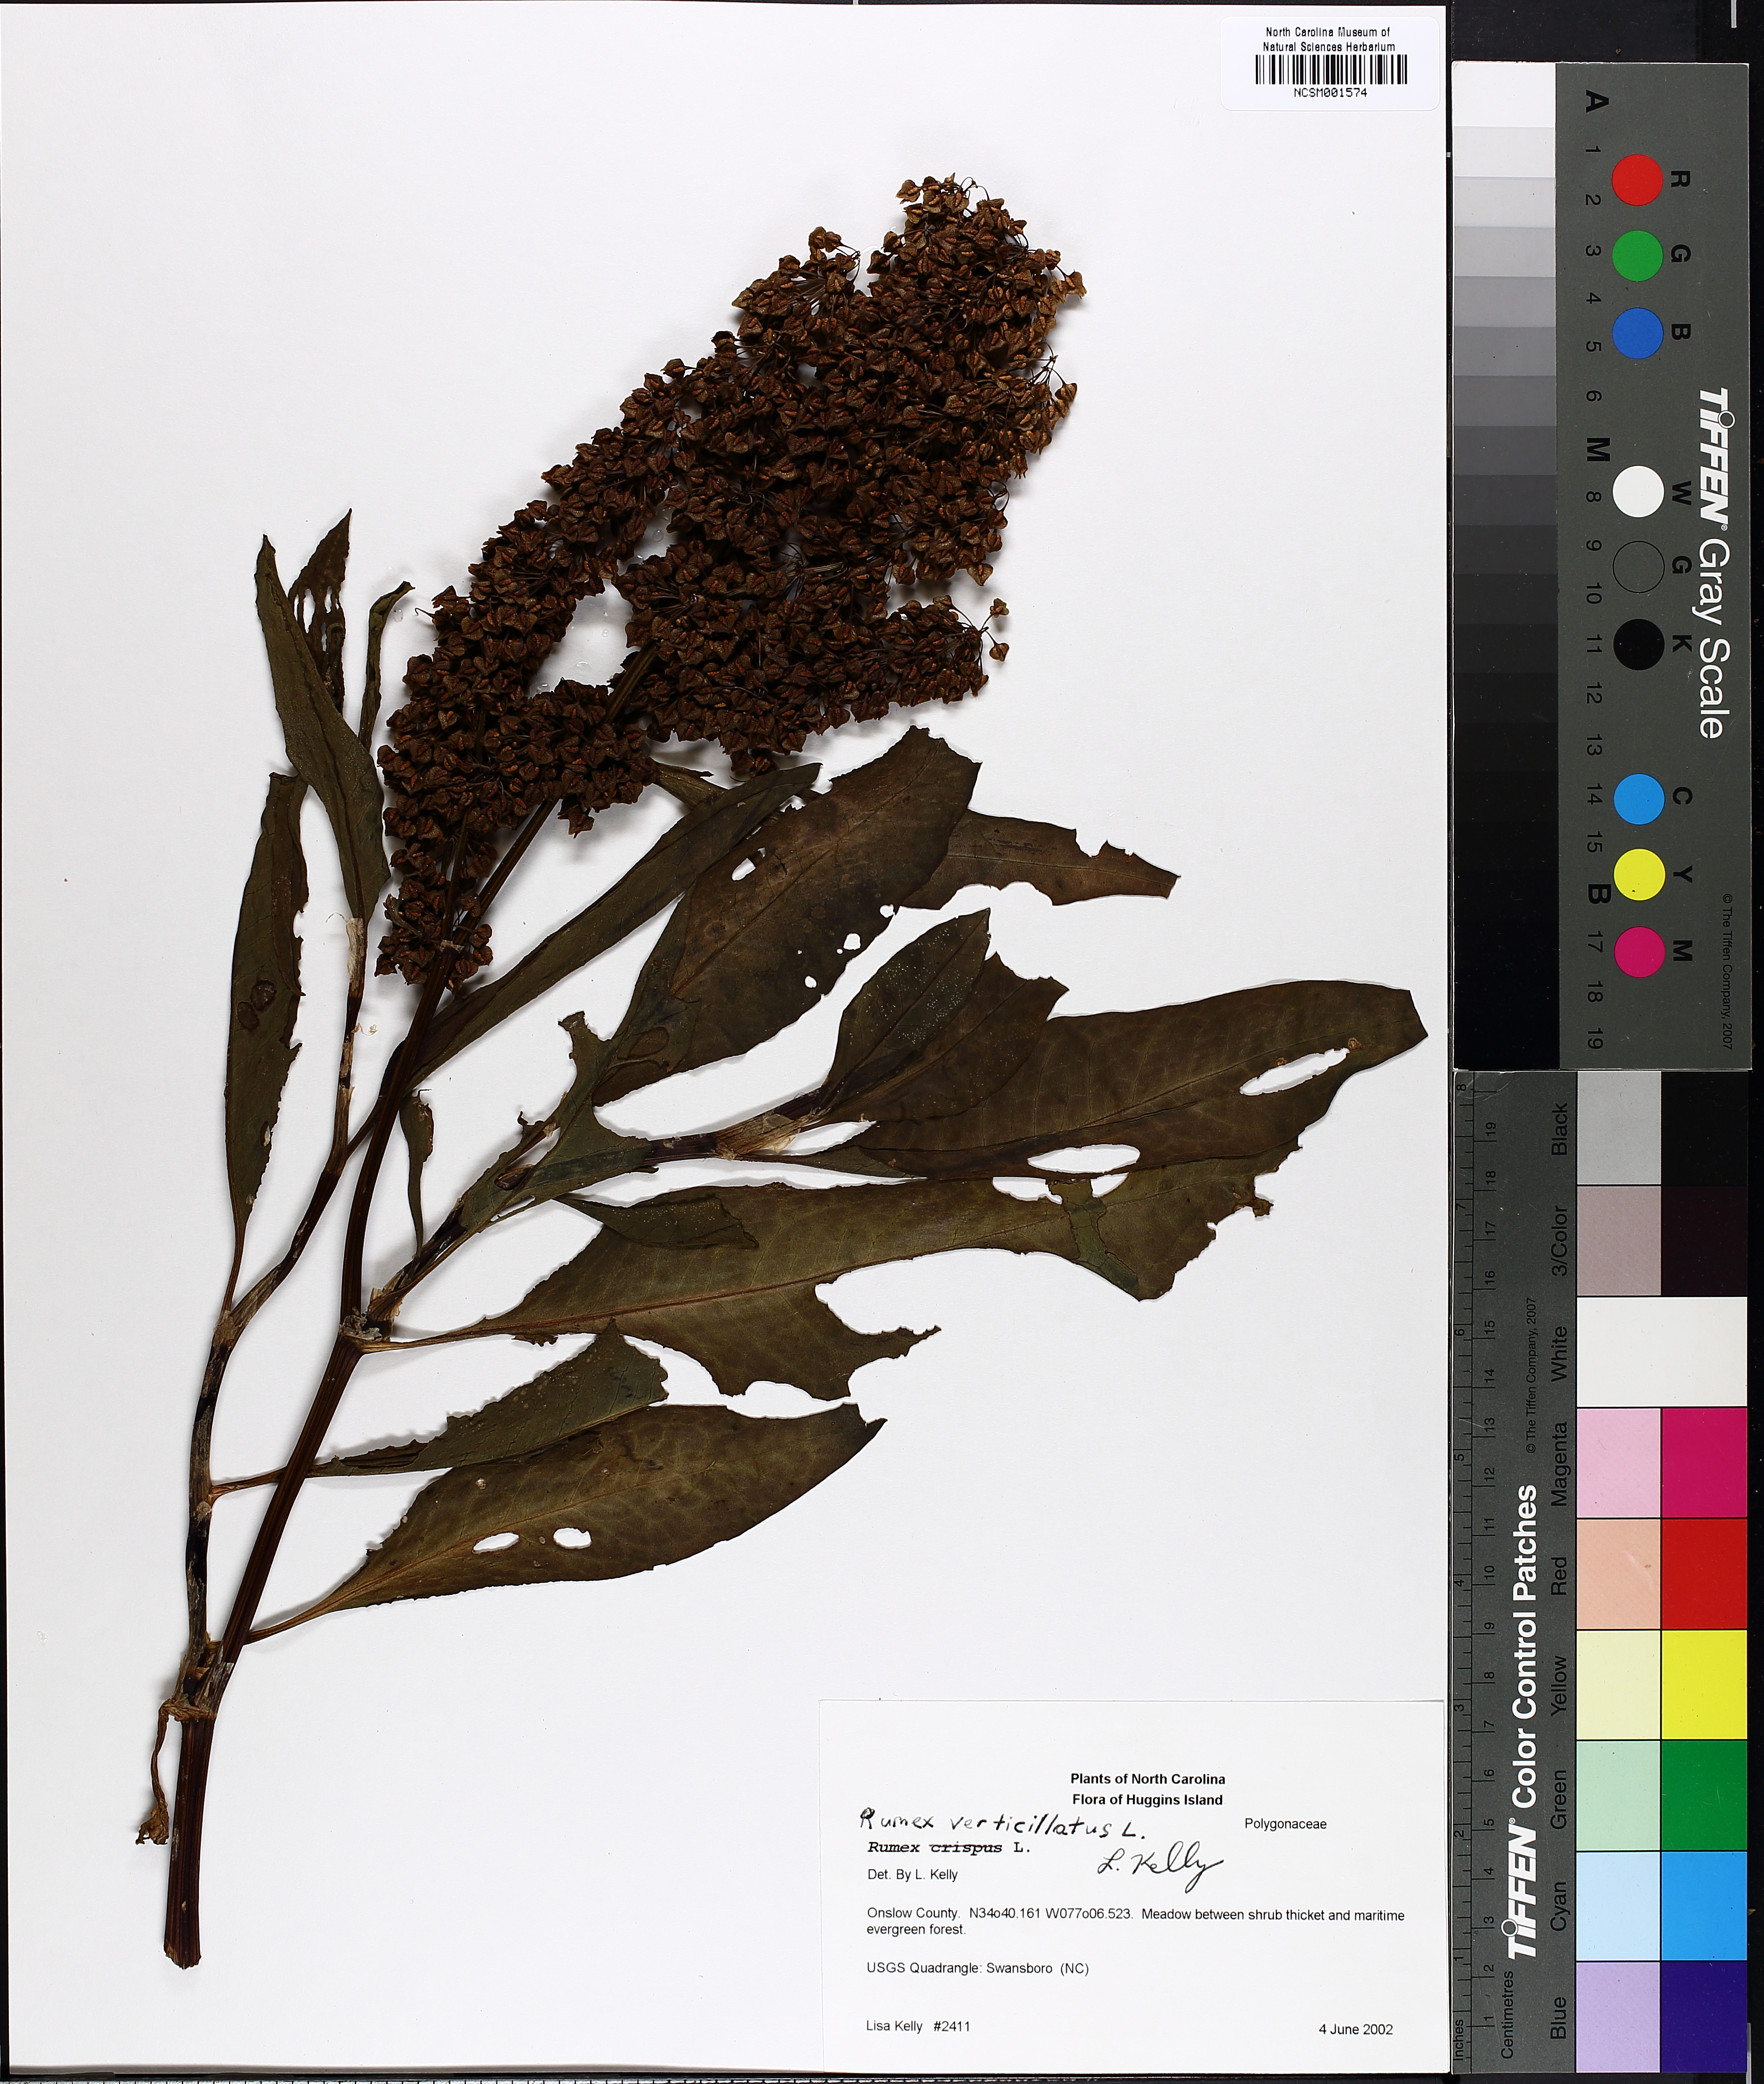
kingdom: Plantae
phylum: Tracheophyta
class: Magnoliopsida
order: Caryophyllales
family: Polygonaceae
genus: Rumex
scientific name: Rumex verticillatus
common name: Swamp dock
